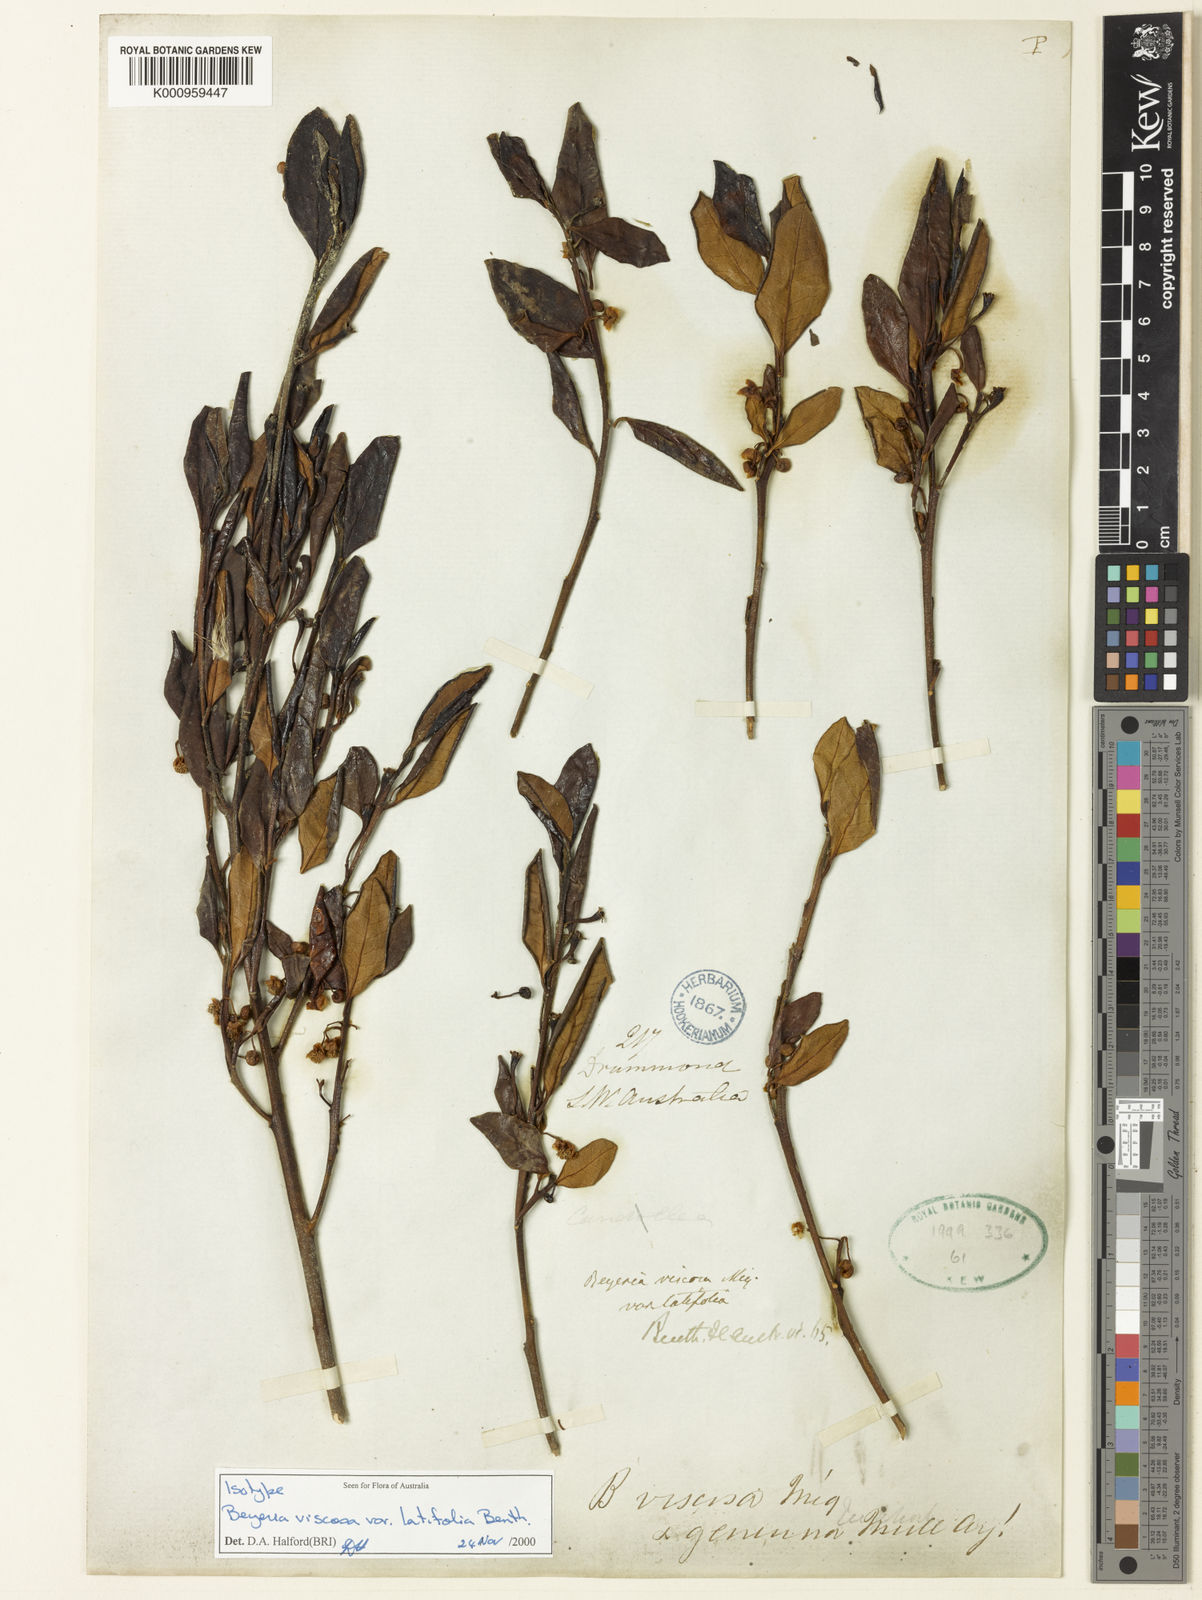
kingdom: Plantae
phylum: Tracheophyta
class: Magnoliopsida
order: Malpighiales
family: Euphorbiaceae
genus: Beyeria
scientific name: Beyeria viscosa
